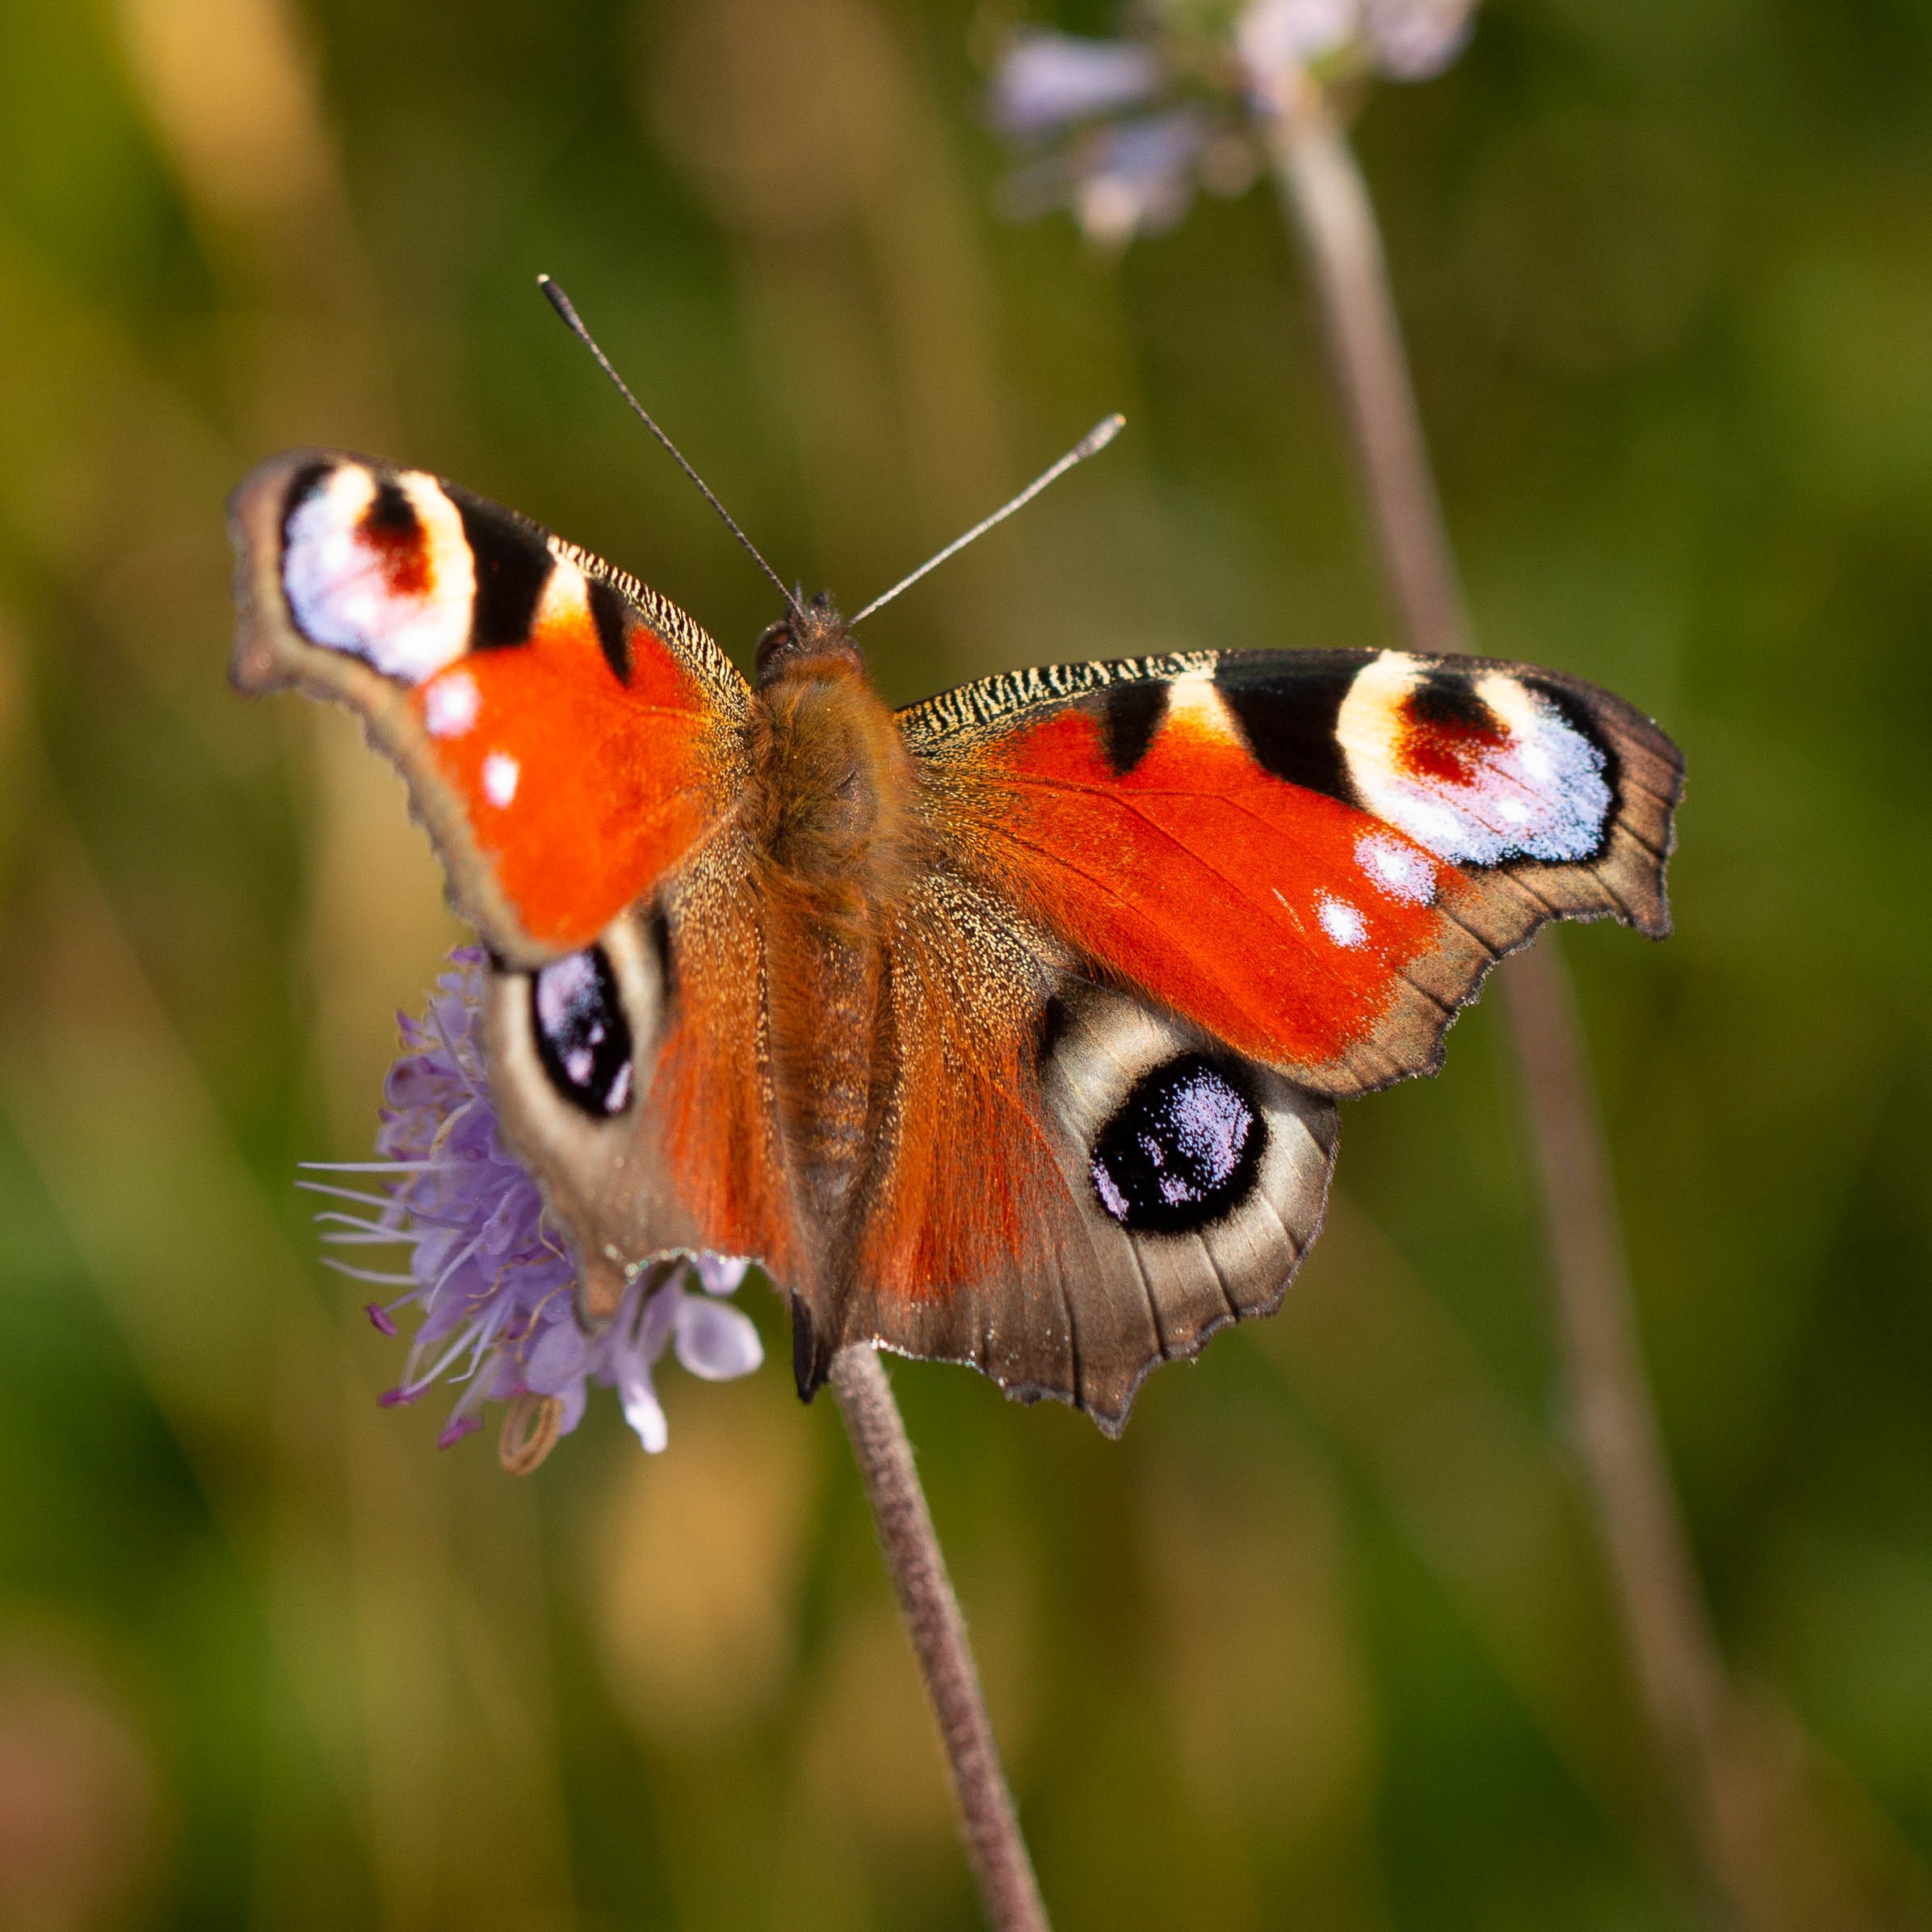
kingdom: Animalia
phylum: Arthropoda
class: Insecta
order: Lepidoptera
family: Nymphalidae
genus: Aglais
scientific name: Aglais io
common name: Dagpåfugleøje
